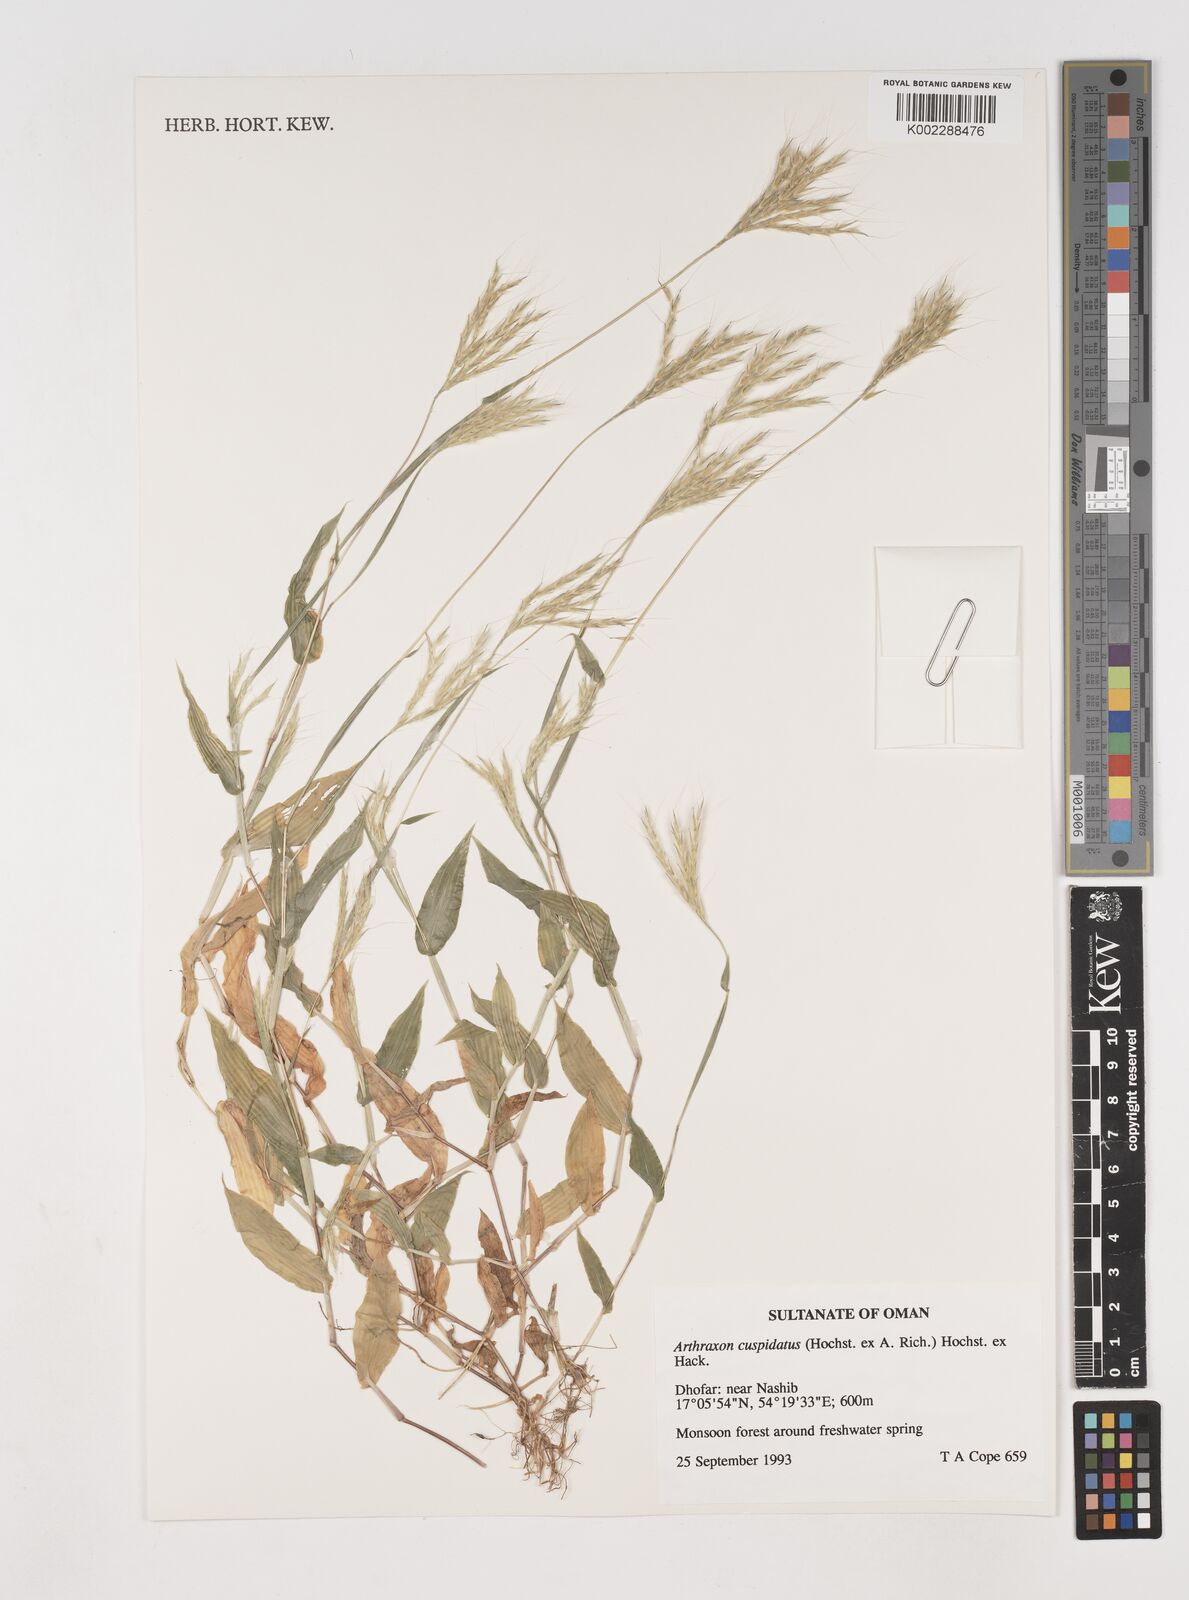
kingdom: Plantae
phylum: Tracheophyta
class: Liliopsida
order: Poales
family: Poaceae
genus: Arthraxon
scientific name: Arthraxon cuspidatus
